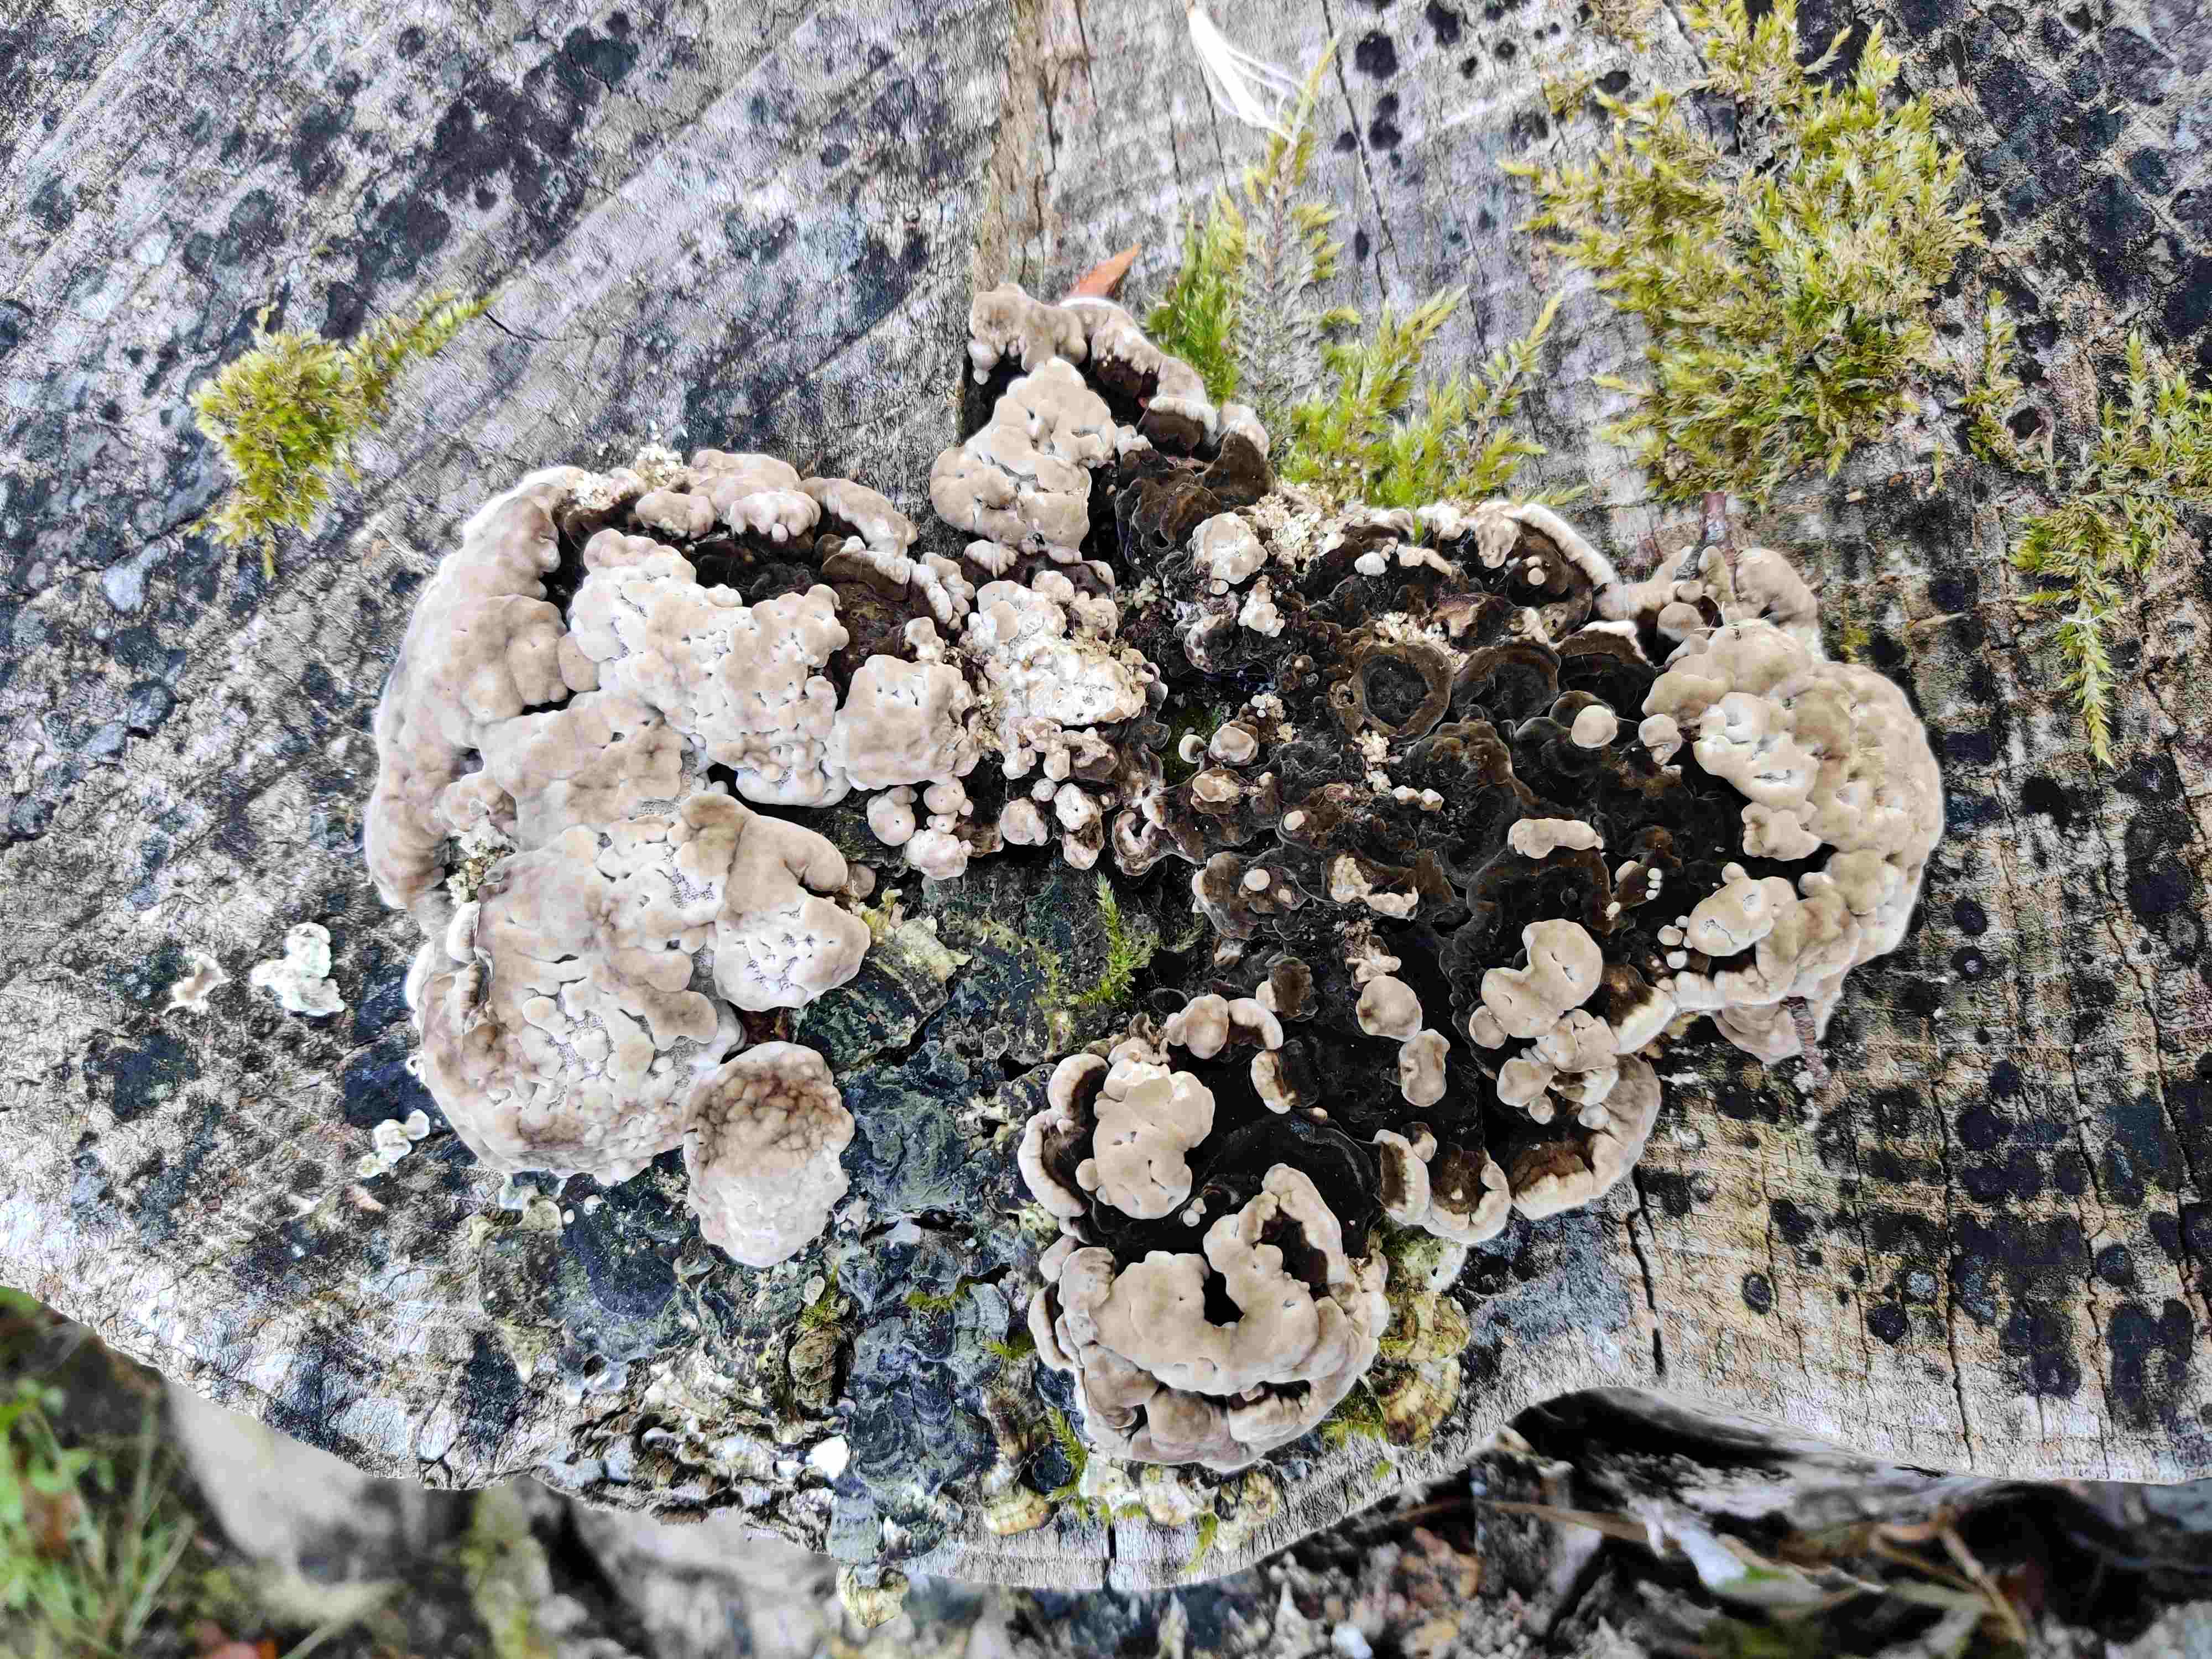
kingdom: Fungi
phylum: Basidiomycota
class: Agaricomycetes
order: Polyporales
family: Polyporaceae
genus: Trametes
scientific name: Trametes versicolor
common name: broget læderporesvamp
